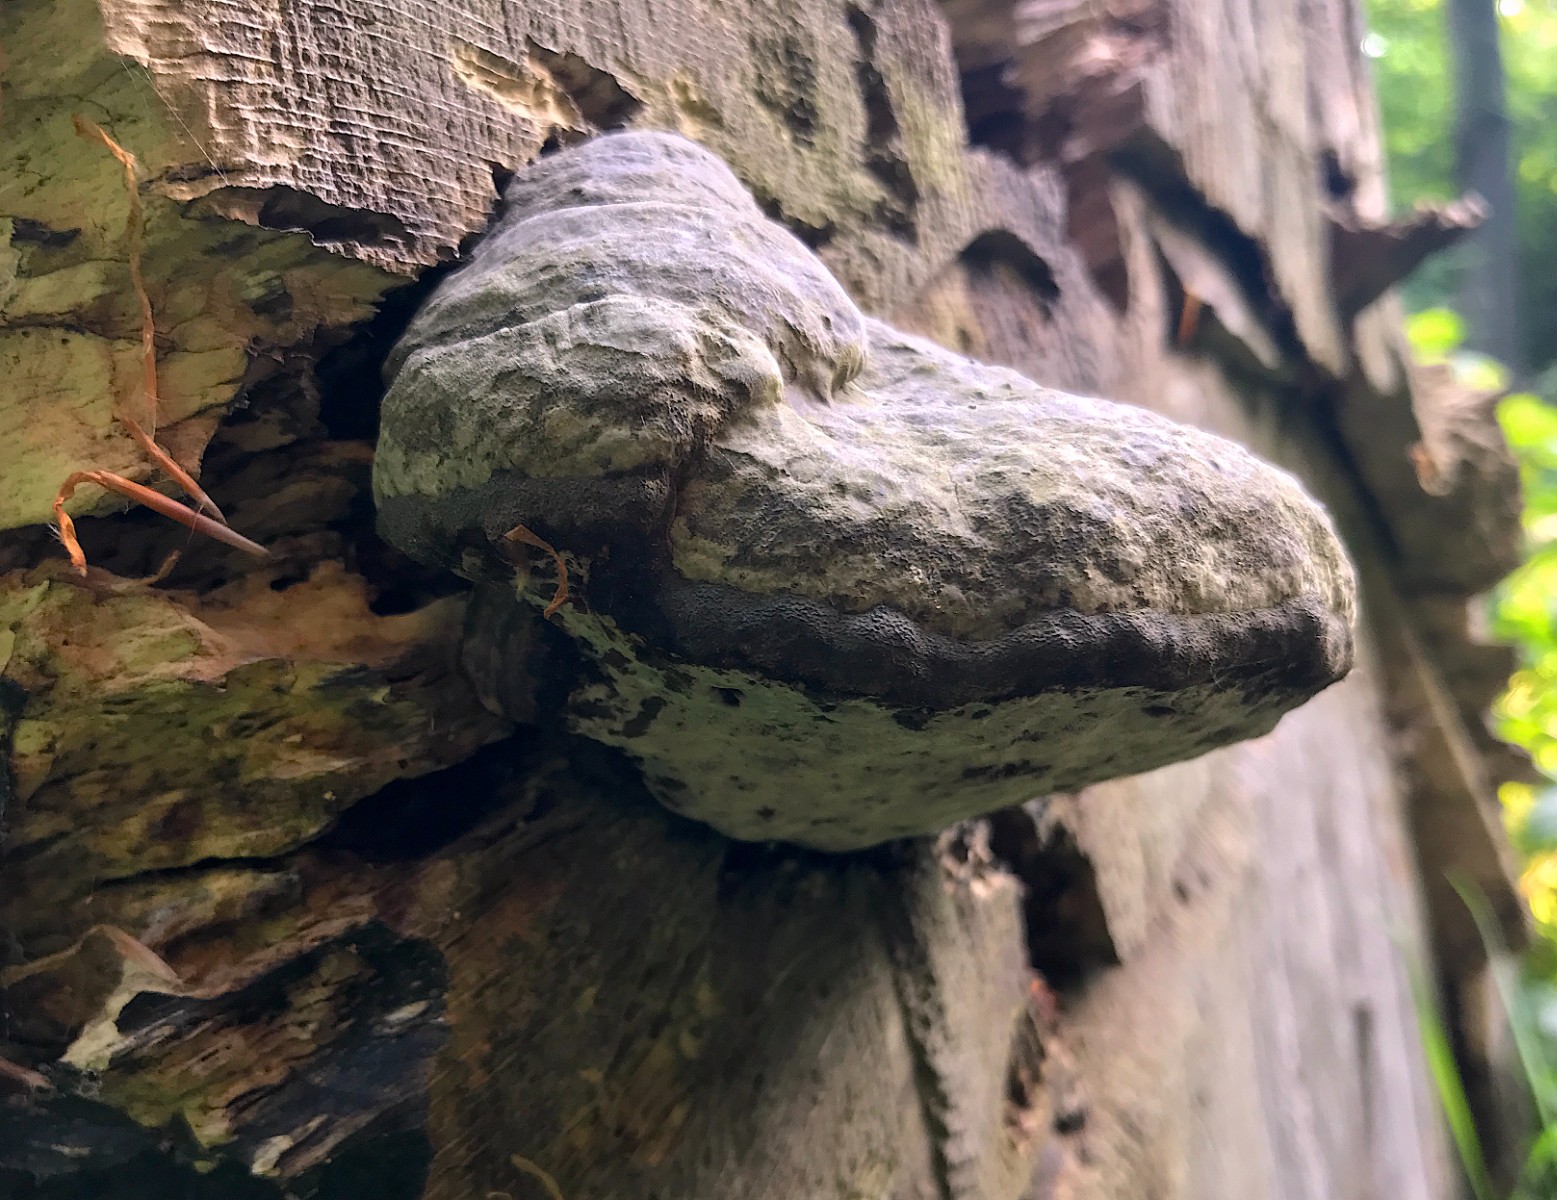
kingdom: Fungi
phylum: Basidiomycota
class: Agaricomycetes
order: Polyporales
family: Polyporaceae
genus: Fomes
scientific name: Fomes fomentarius
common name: tøndersvamp
